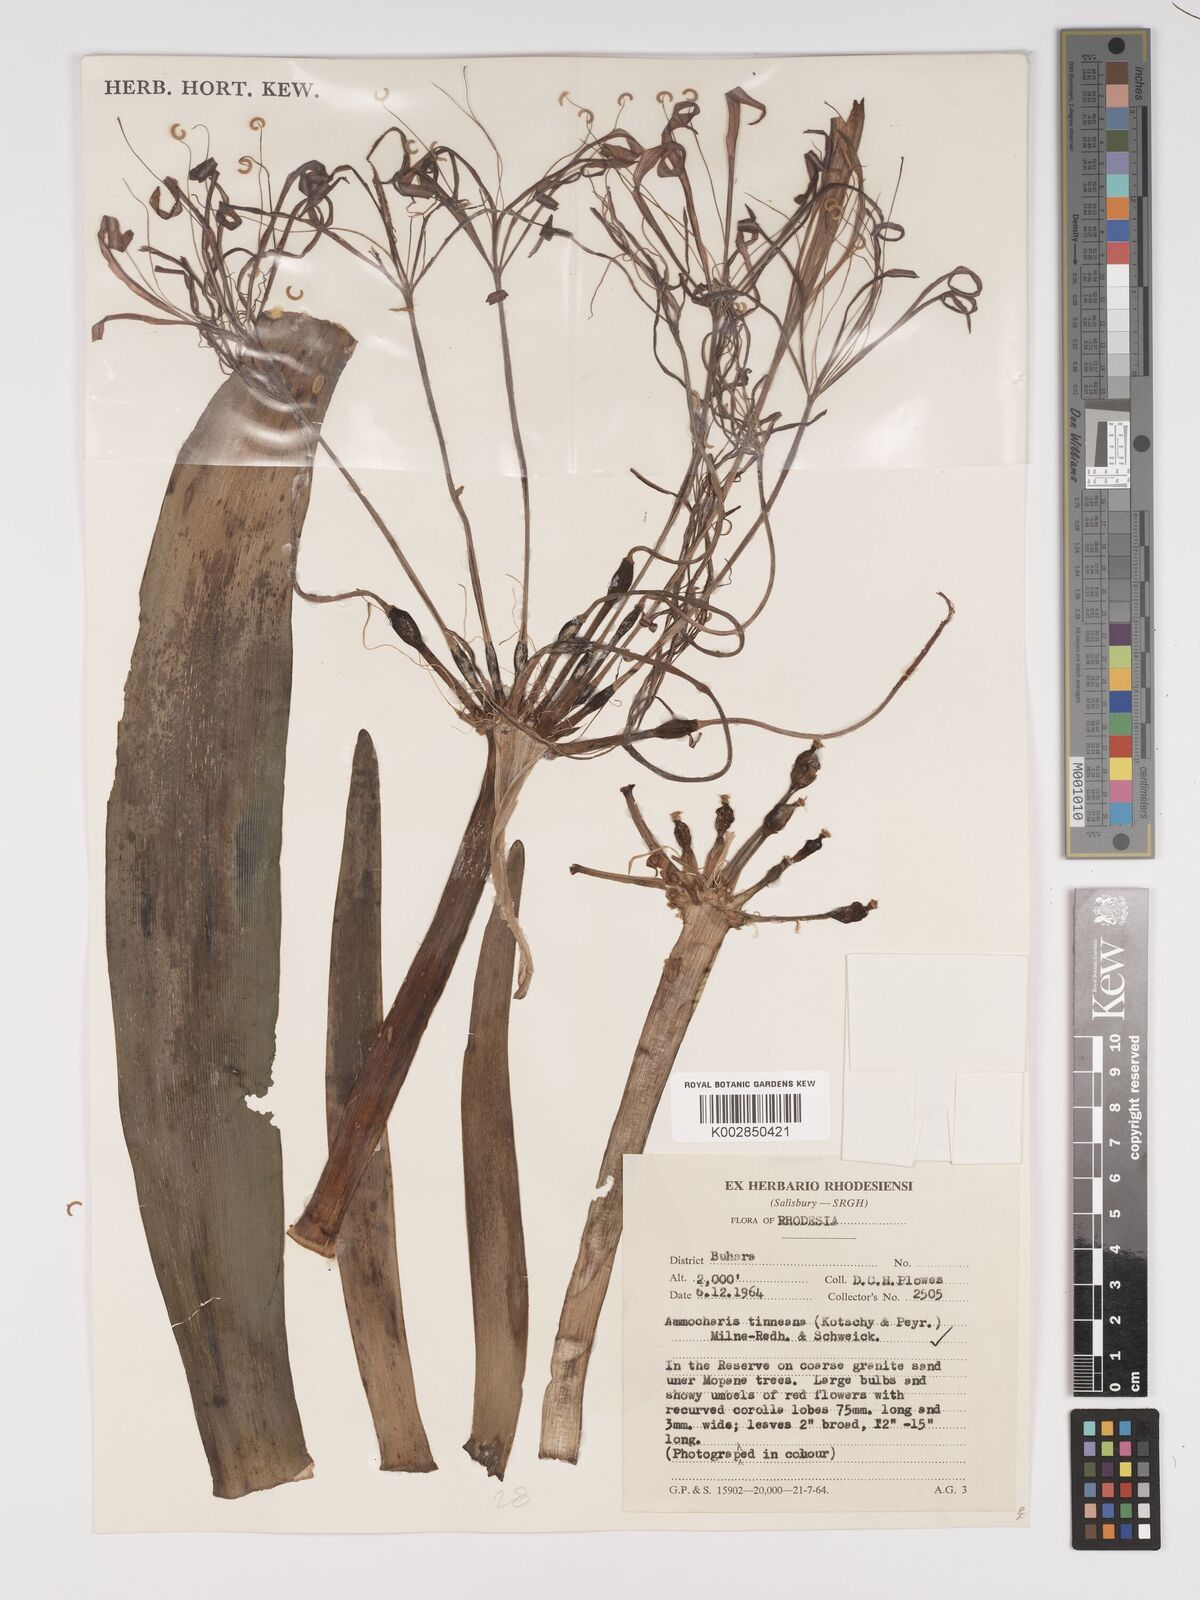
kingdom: Plantae
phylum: Tracheophyta
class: Liliopsida
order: Asparagales
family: Amaryllidaceae
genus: Ammocharis
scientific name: Ammocharis tinneana
